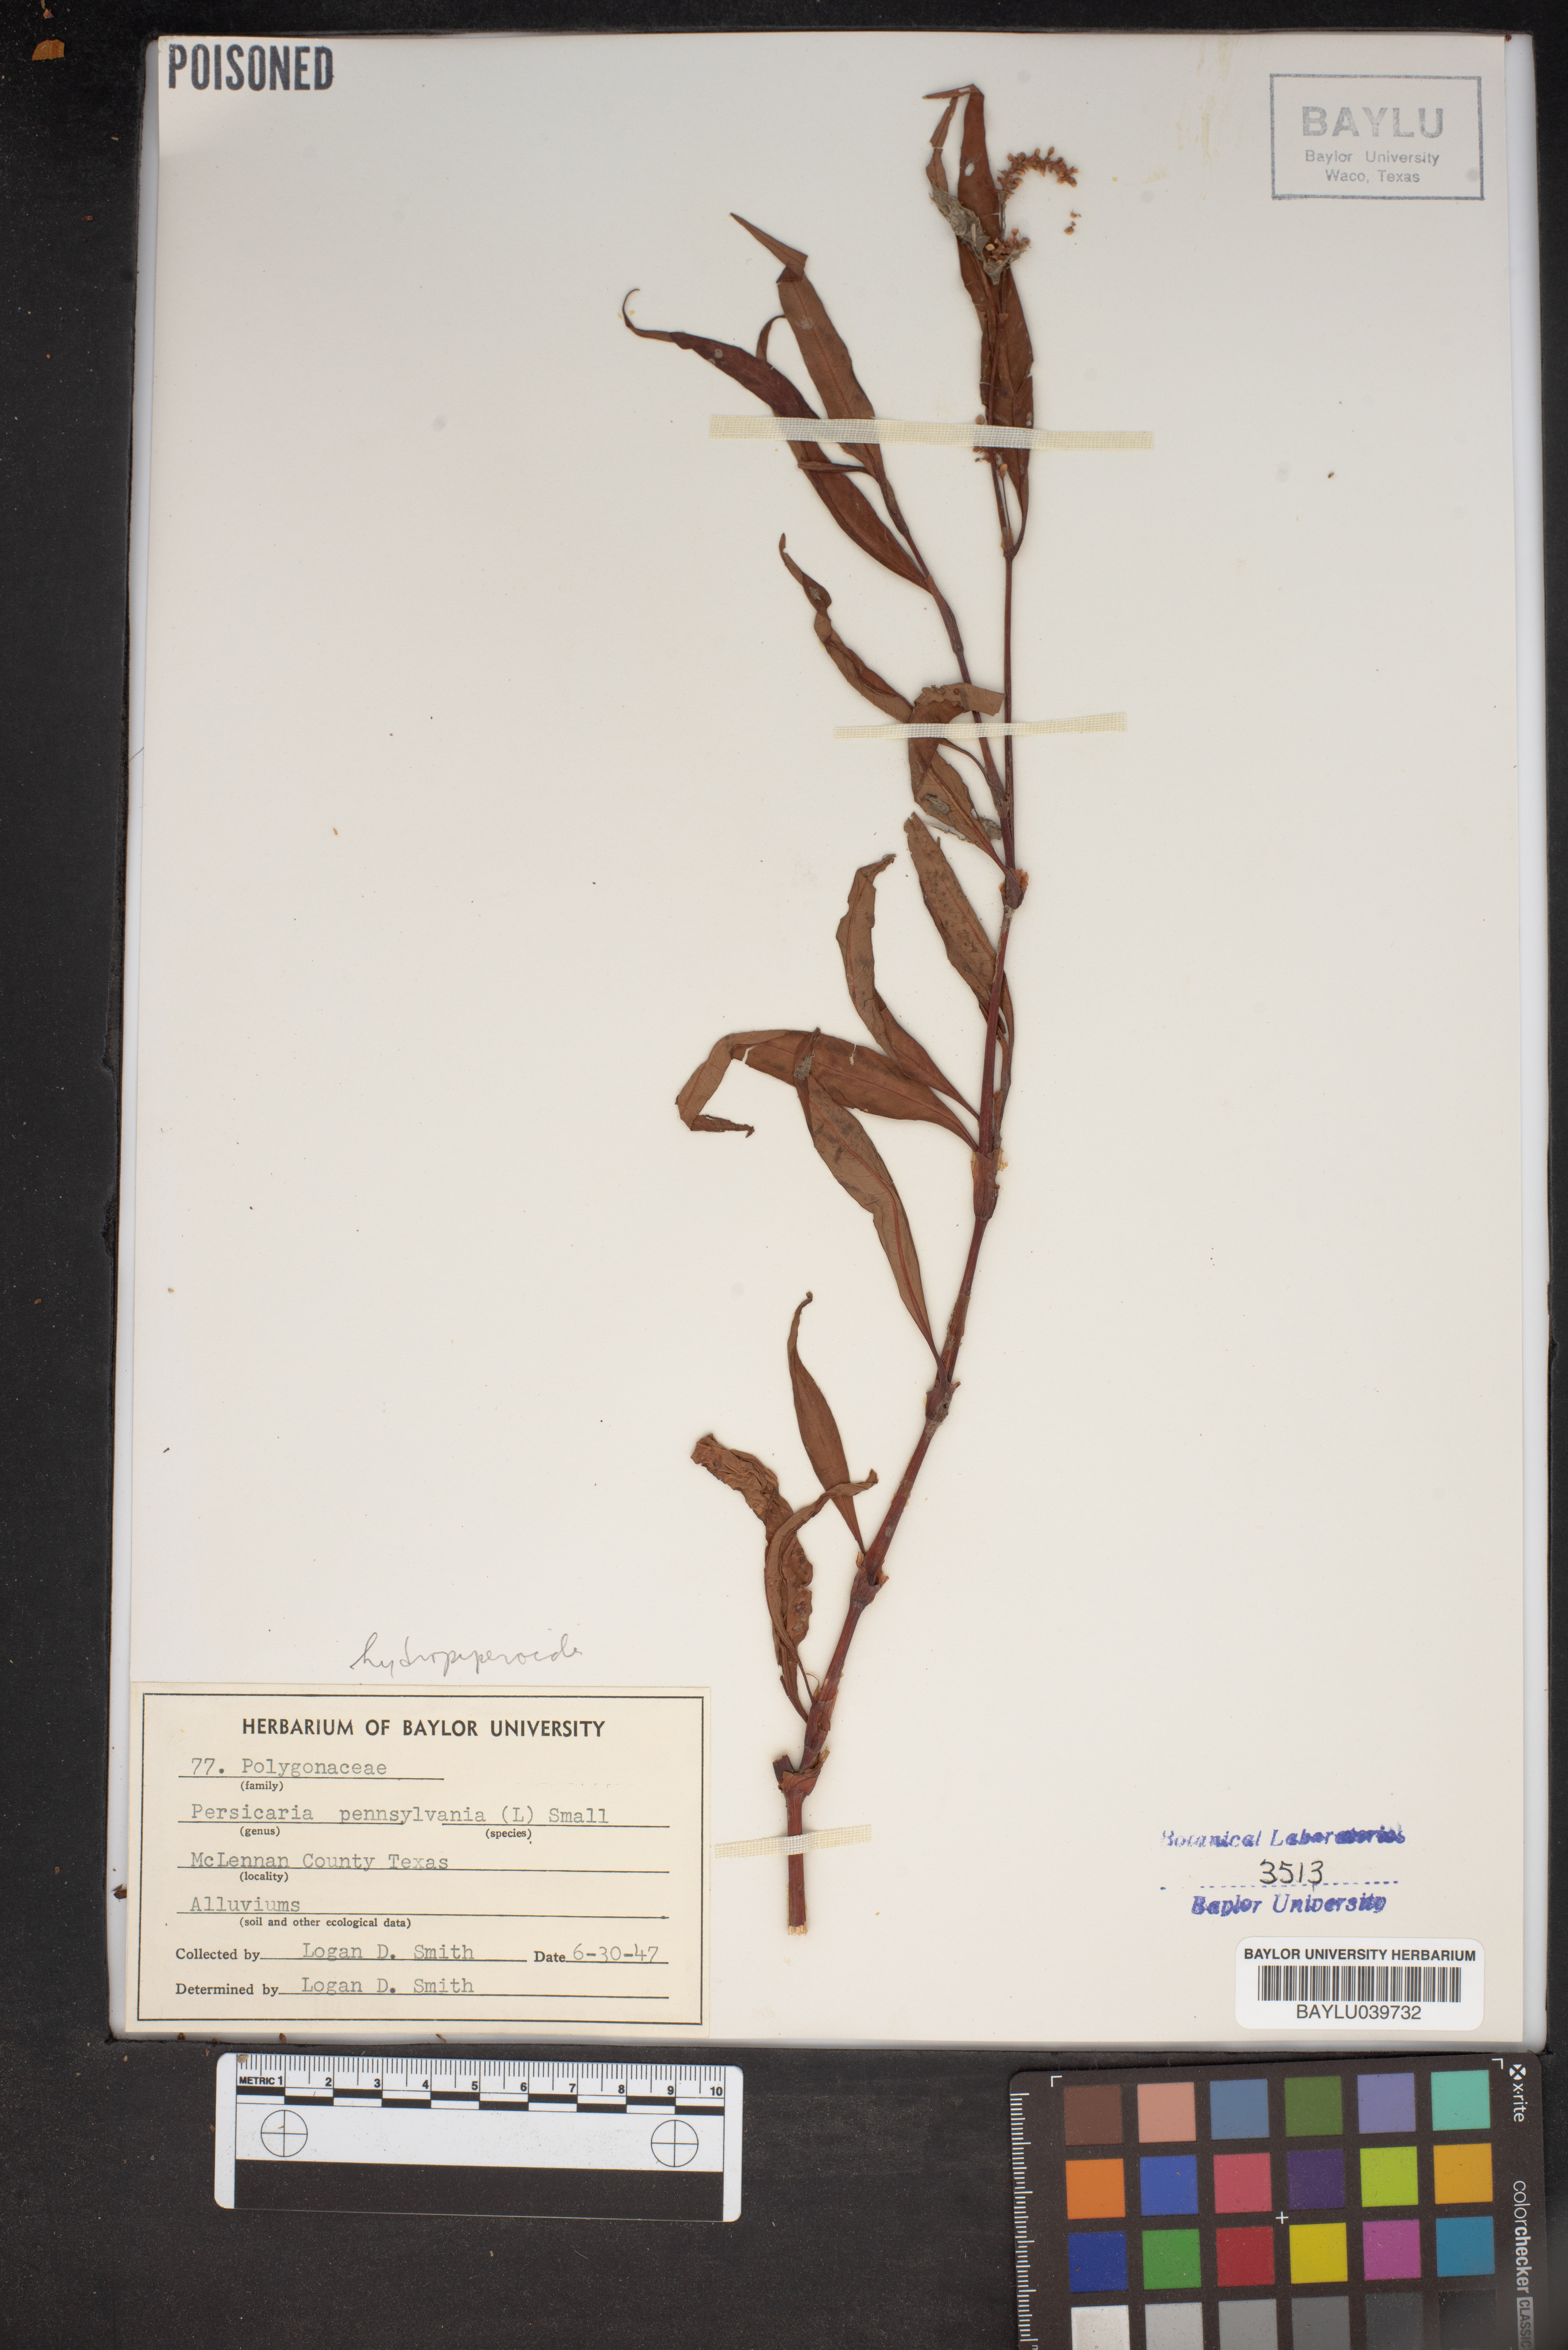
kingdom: Plantae
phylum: Tracheophyta
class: Magnoliopsida
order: Caryophyllales
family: Polygonaceae
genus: Persicaria
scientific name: Persicaria pensylvanica
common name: Pinkweed
